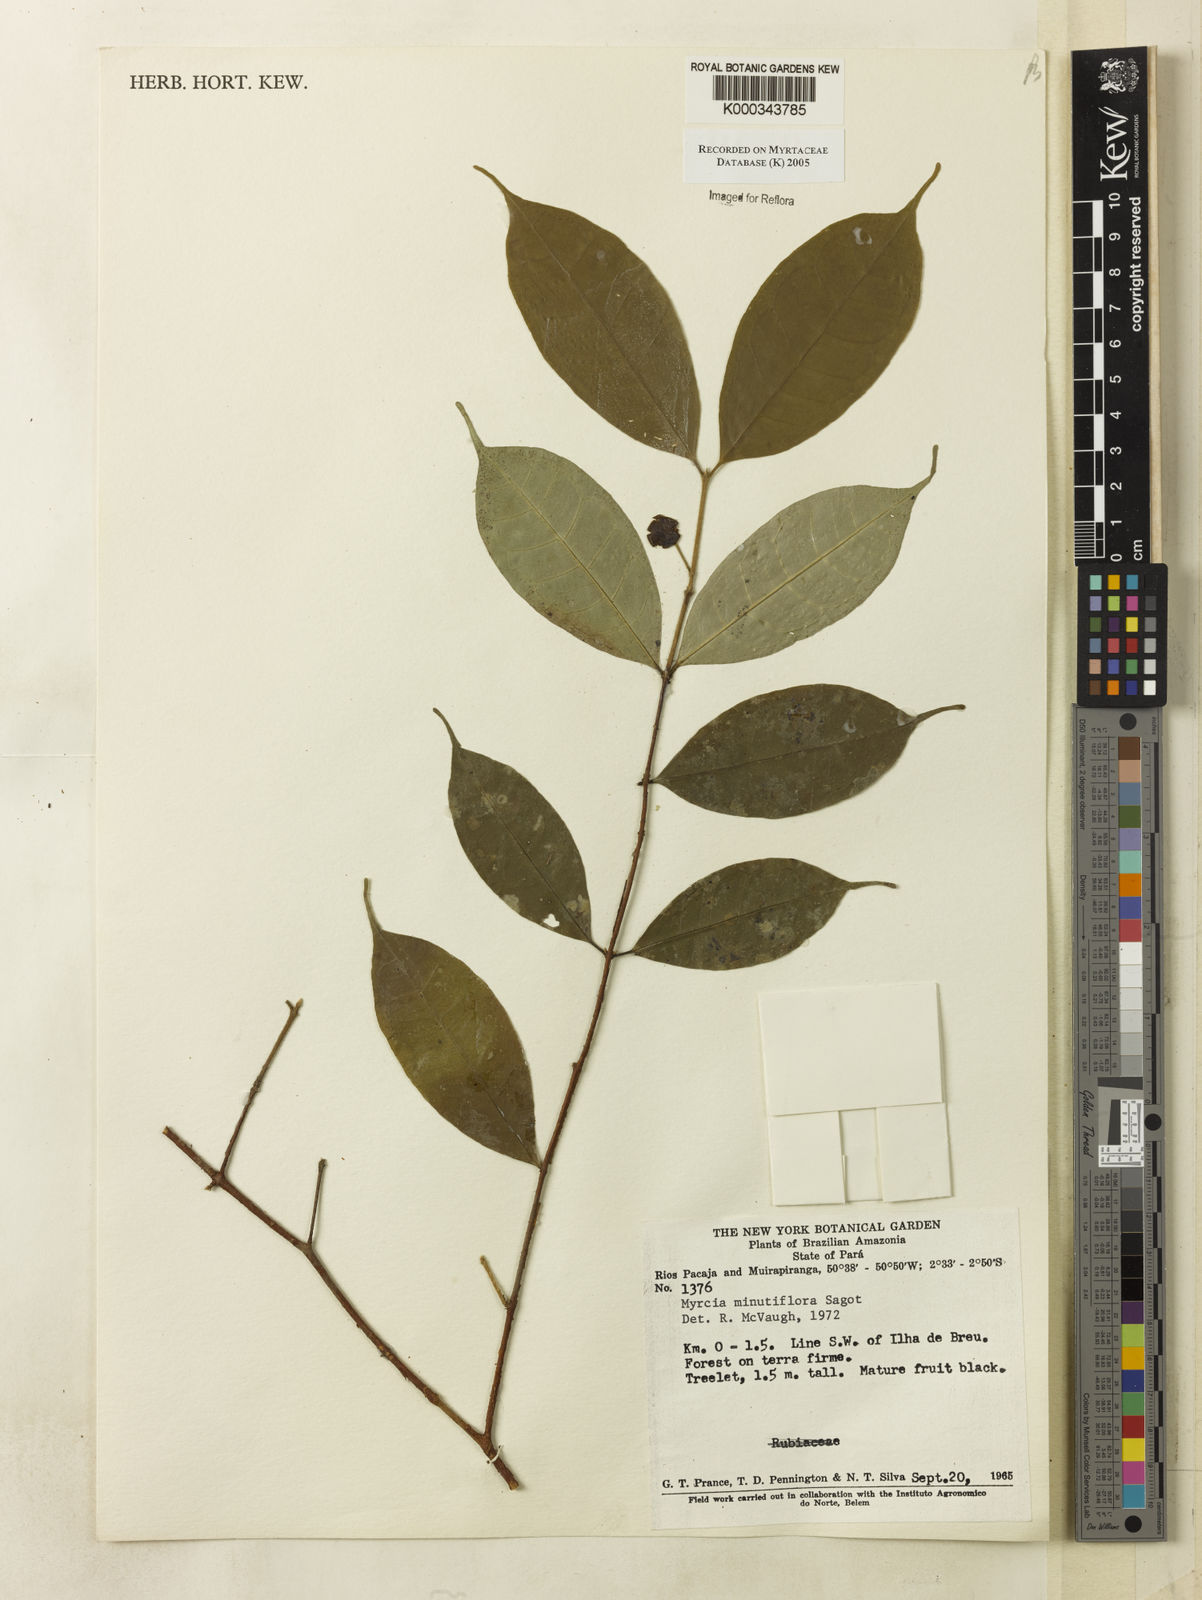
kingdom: Plantae
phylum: Tracheophyta
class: Magnoliopsida
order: Myrtales
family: Myrtaceae
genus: Myrcia
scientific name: Myrcia minutiflora
